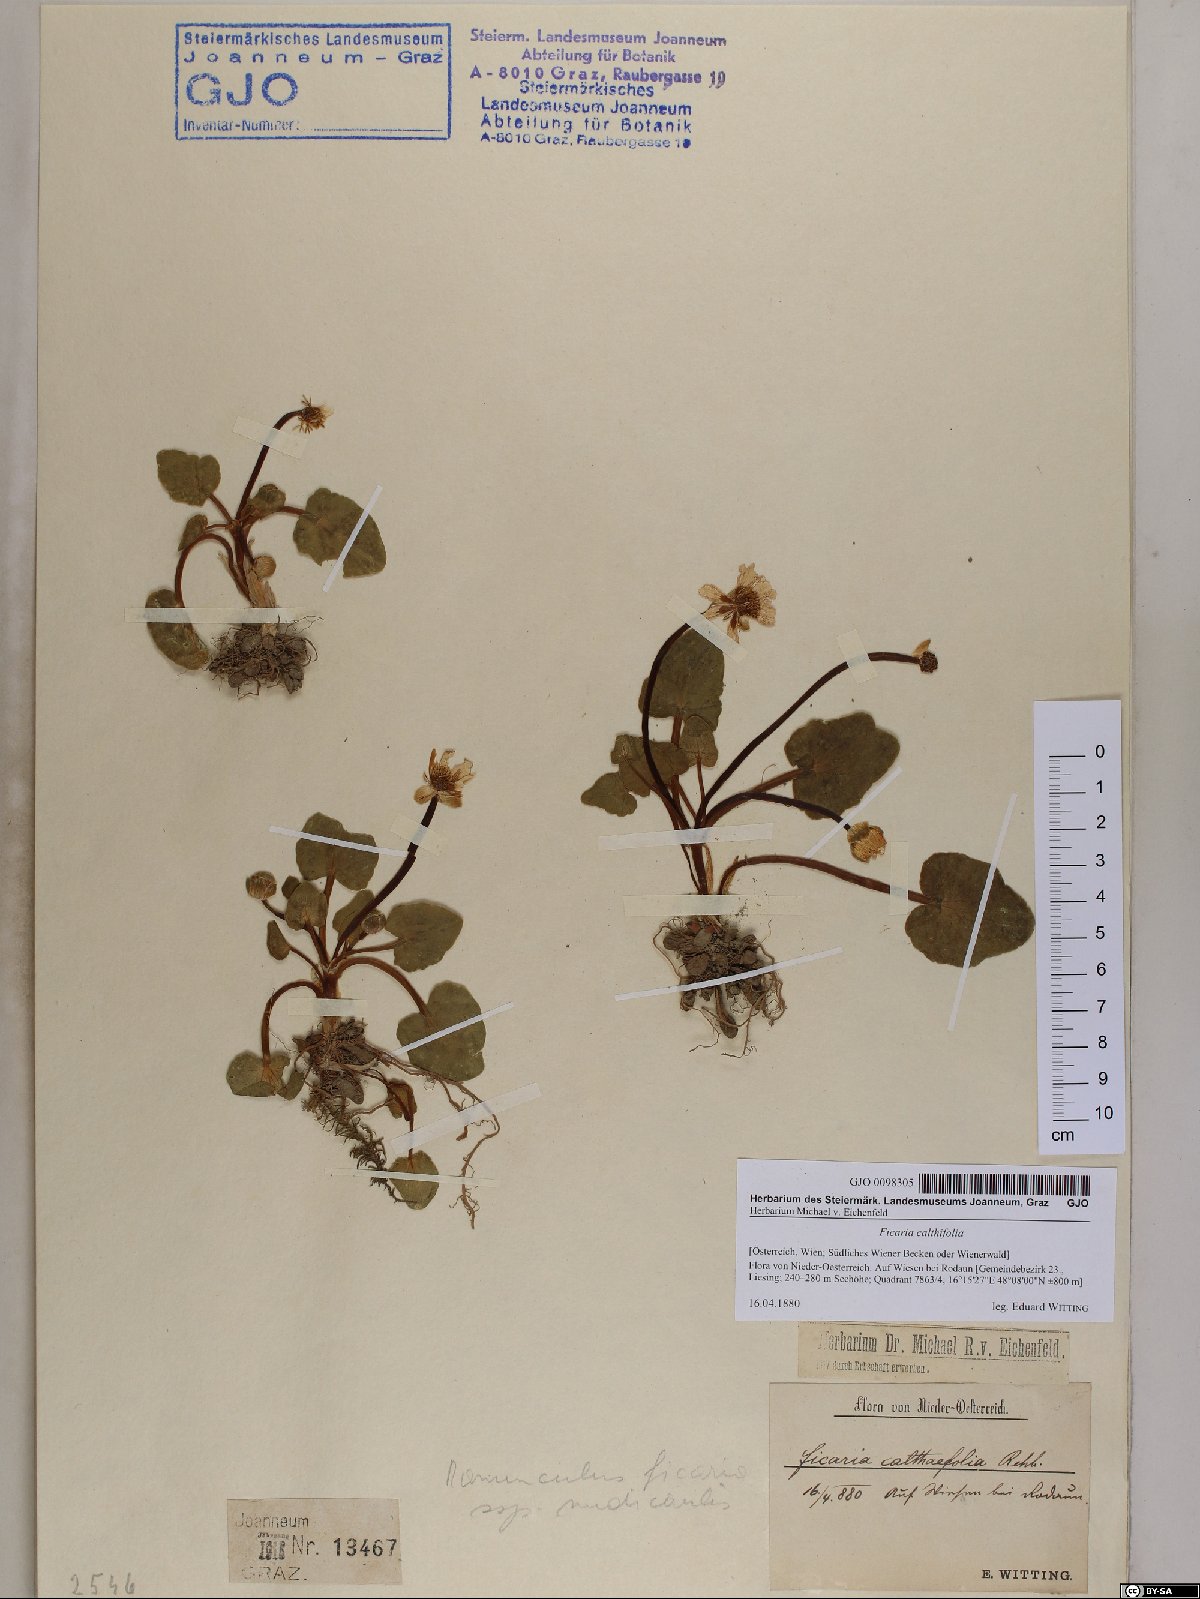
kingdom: Plantae
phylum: Tracheophyta
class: Magnoliopsida
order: Ranunculales
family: Ranunculaceae
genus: Ficaria
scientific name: Ficaria calthifolia
